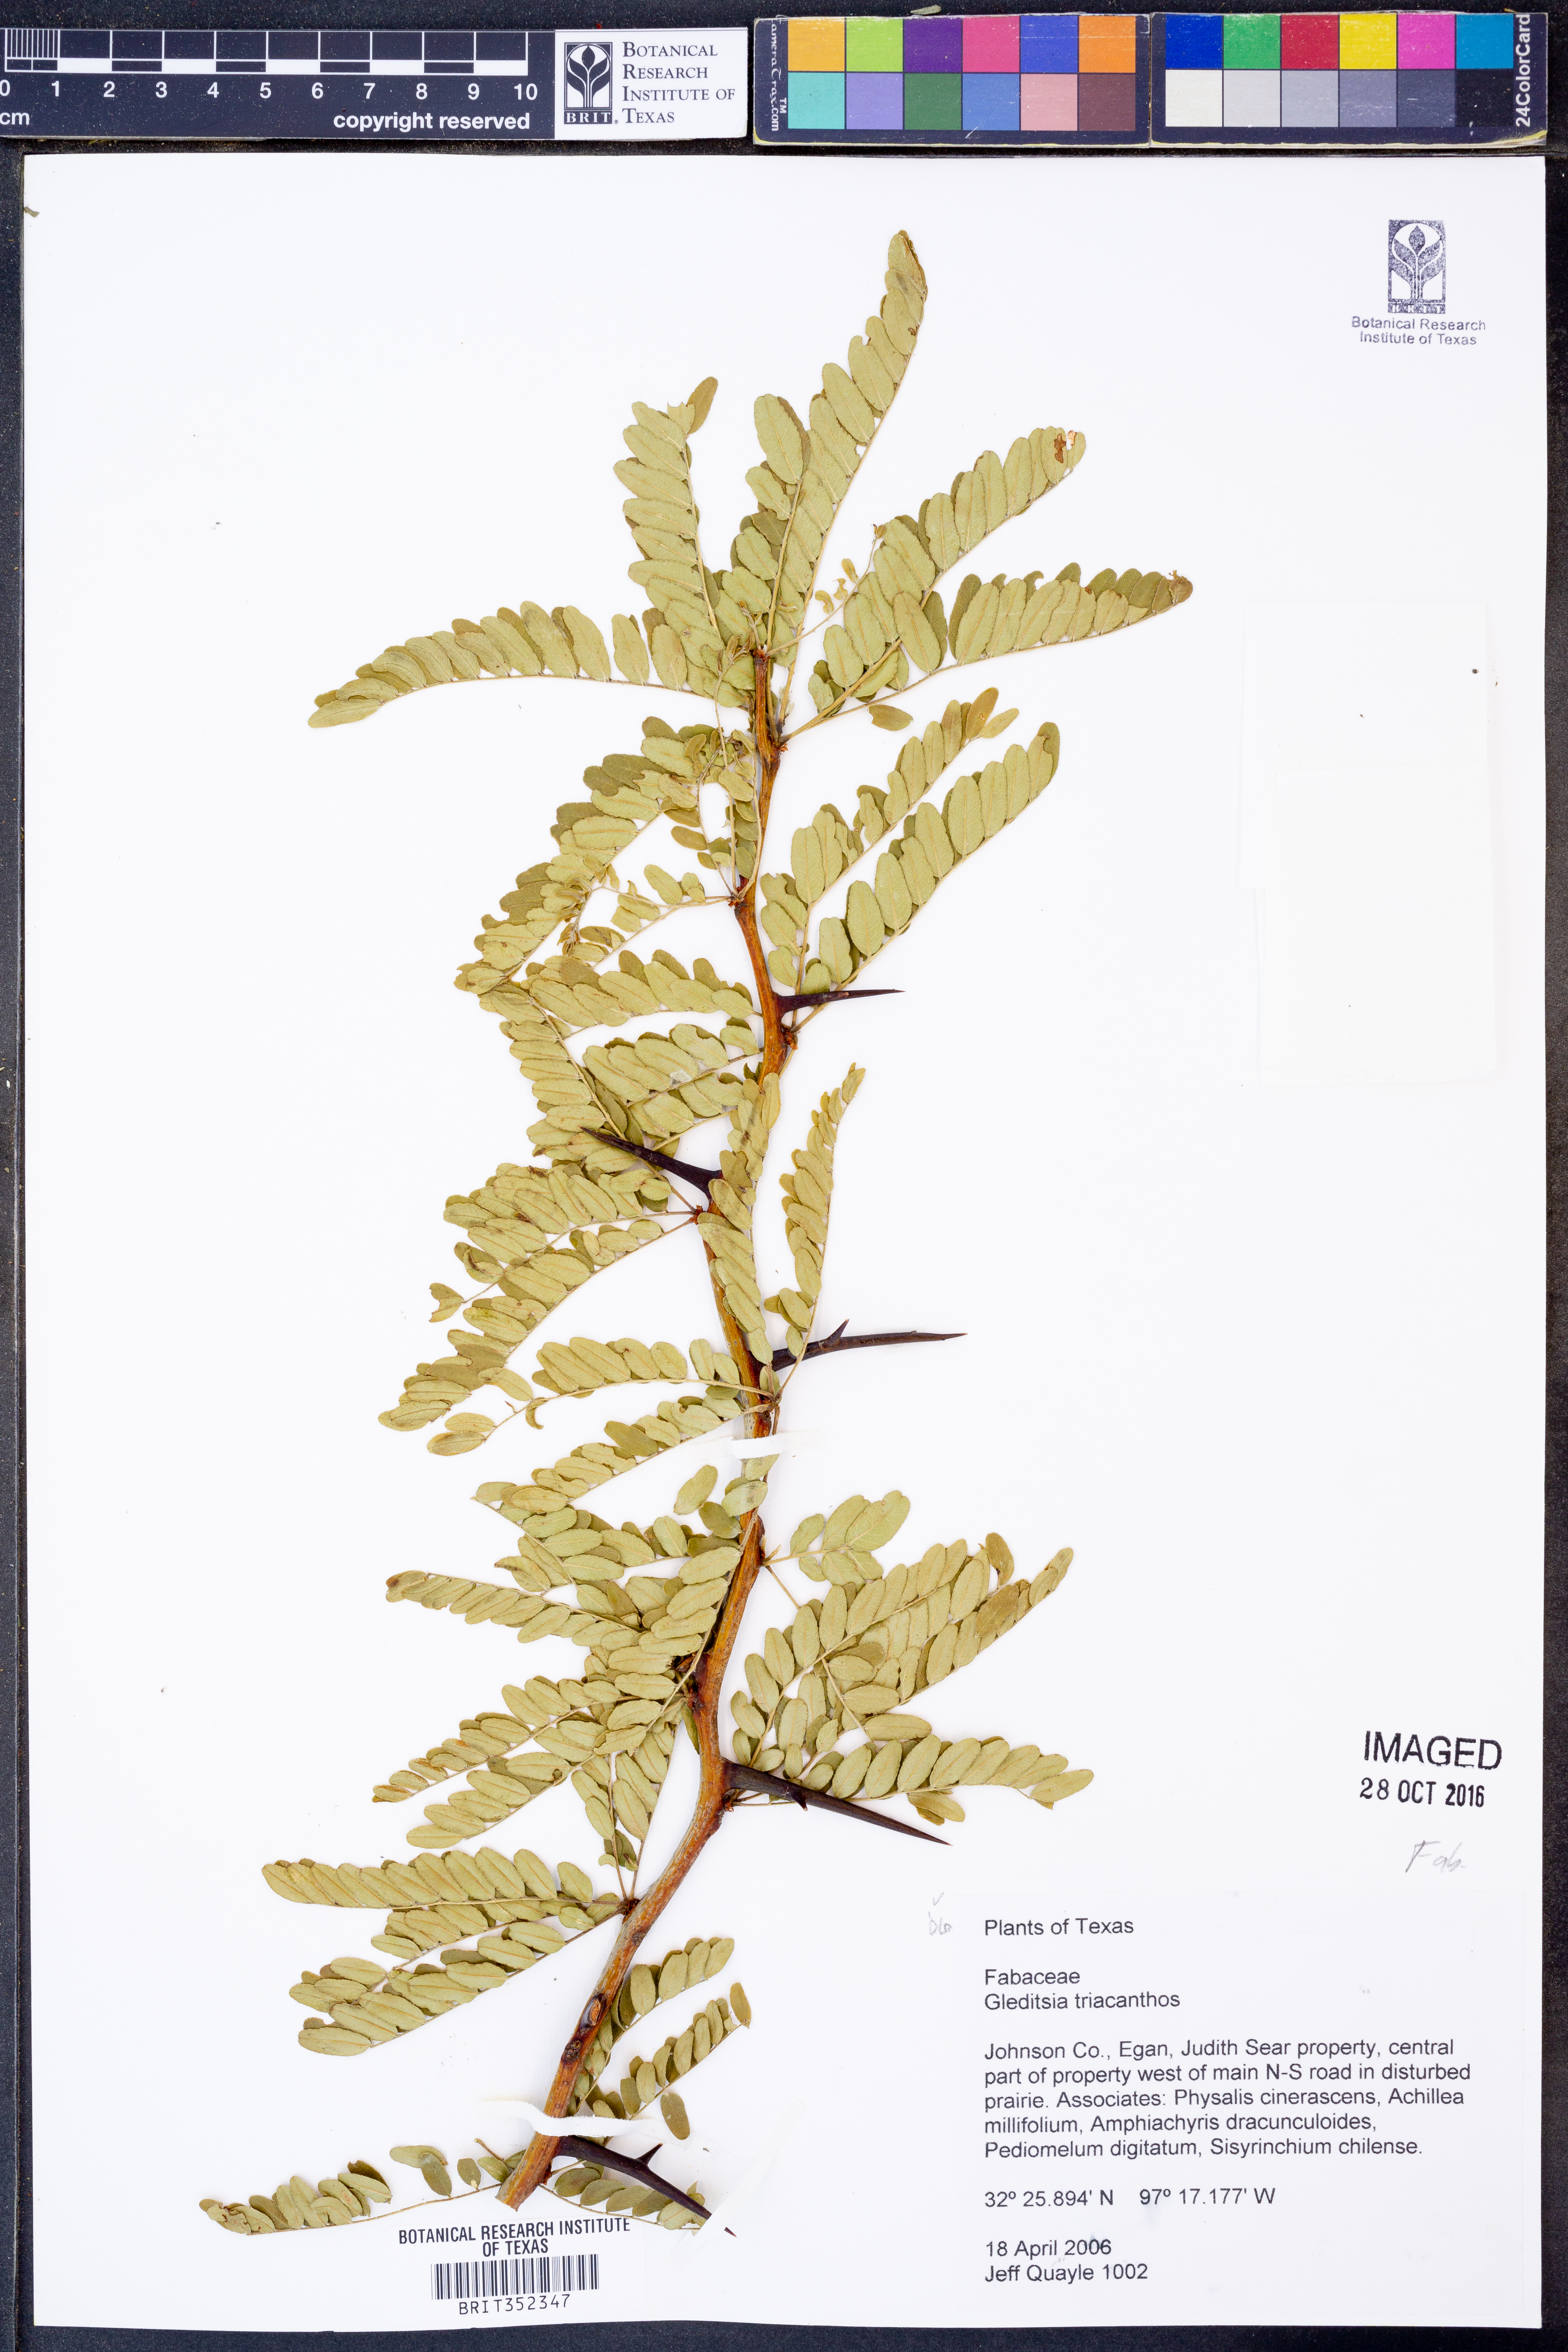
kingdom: Plantae
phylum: Tracheophyta
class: Magnoliopsida
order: Fabales
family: Fabaceae
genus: Gleditsia
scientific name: Gleditsia triacanthos
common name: Common honeylocust
